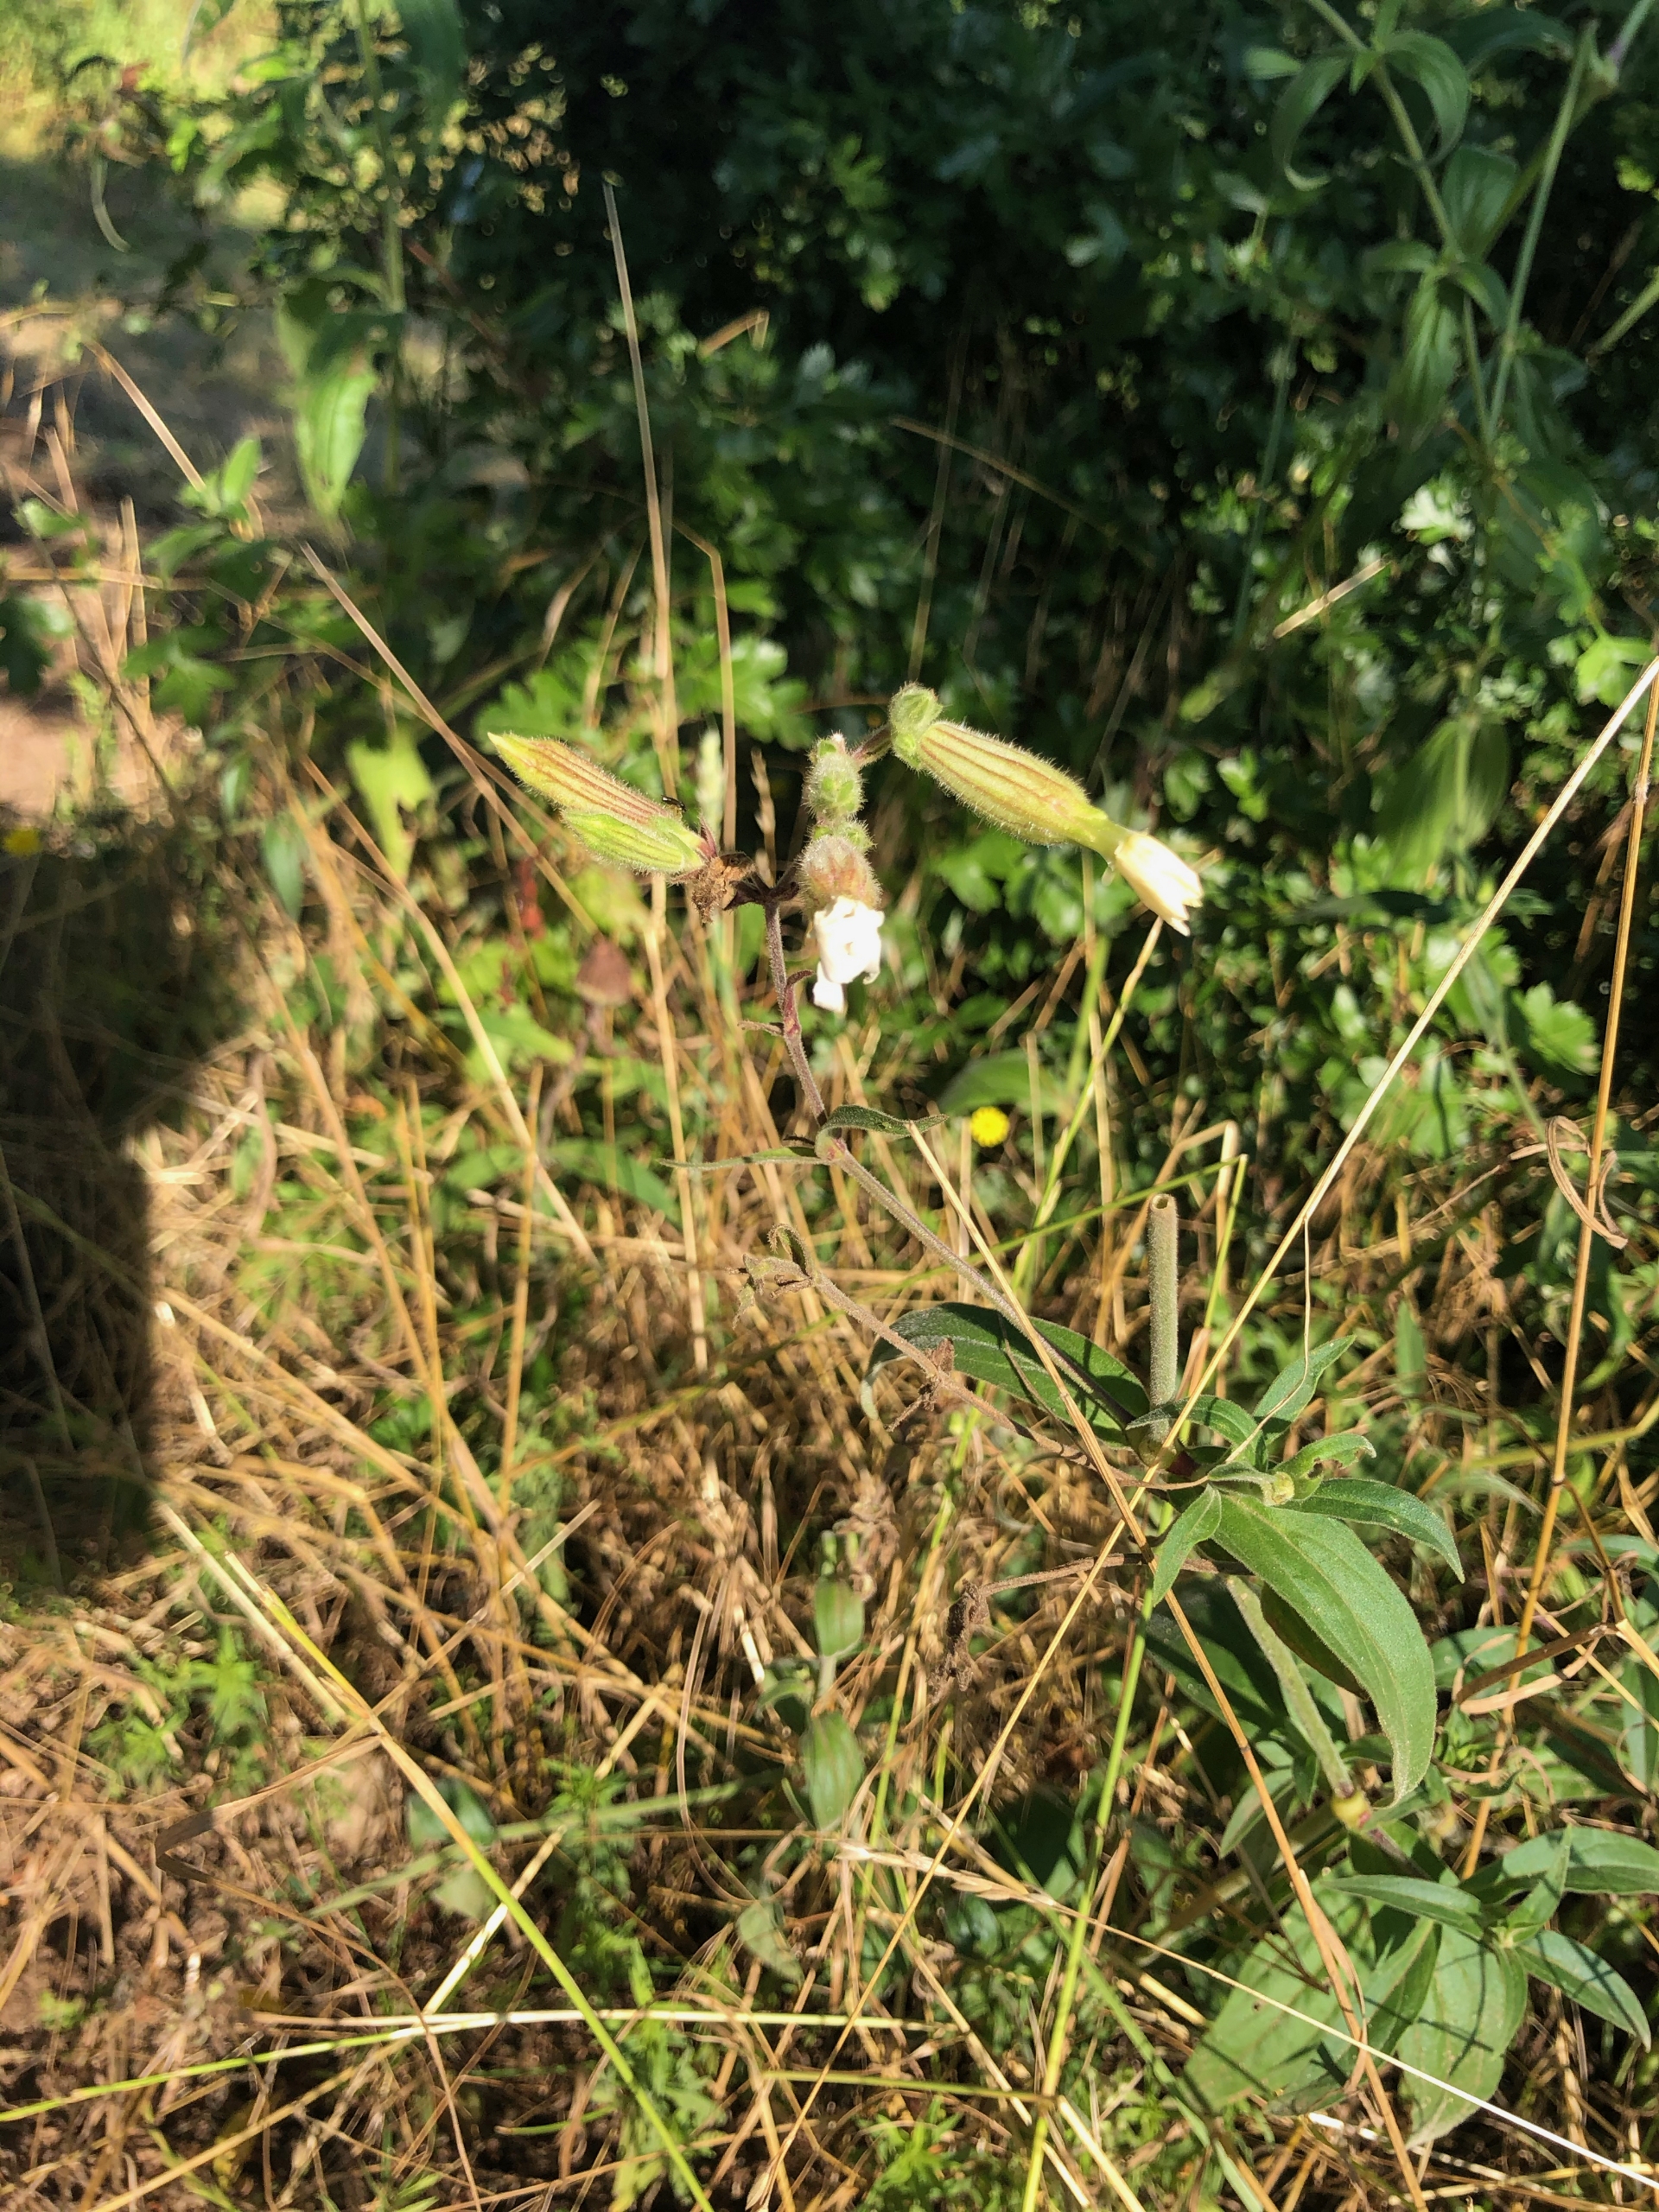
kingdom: Plantae
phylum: Tracheophyta
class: Magnoliopsida
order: Caryophyllales
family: Caryophyllaceae
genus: Silene
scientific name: Silene latifolia
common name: Aftenpragtstjerne
